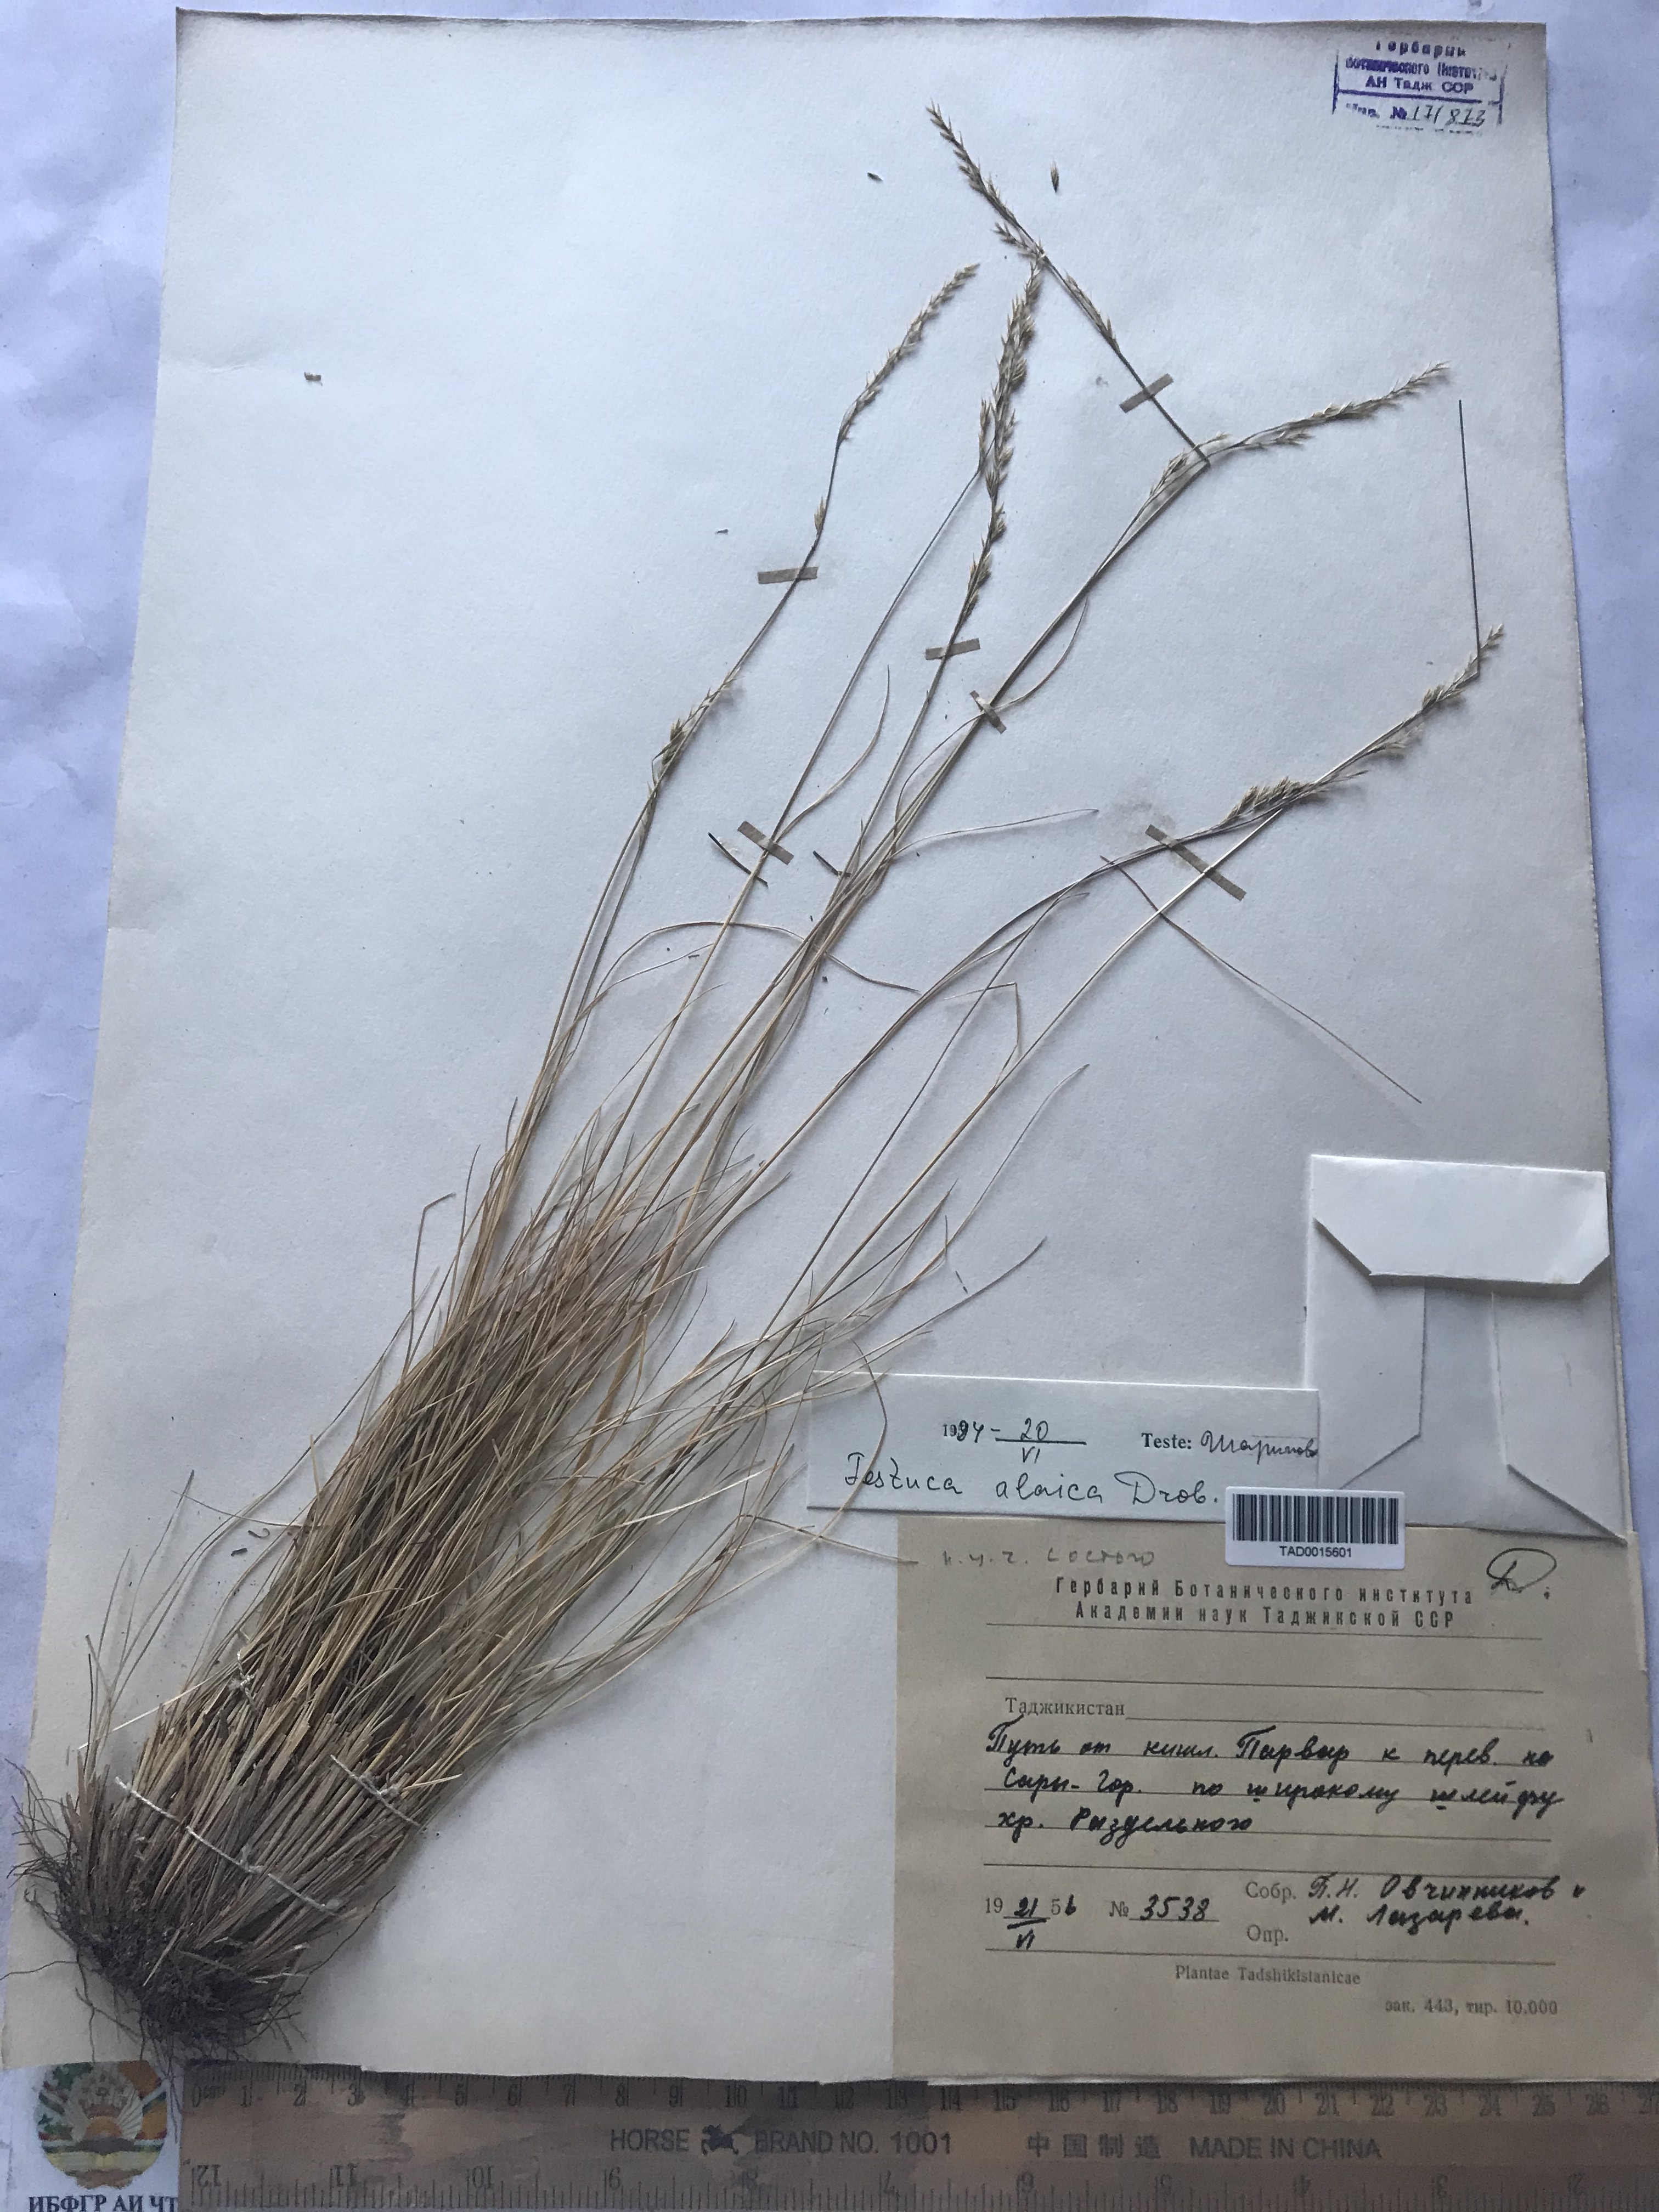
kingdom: Plantae
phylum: Tracheophyta
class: Liliopsida
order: Poales
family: Poaceae
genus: Festuca
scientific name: Festuca alaica
